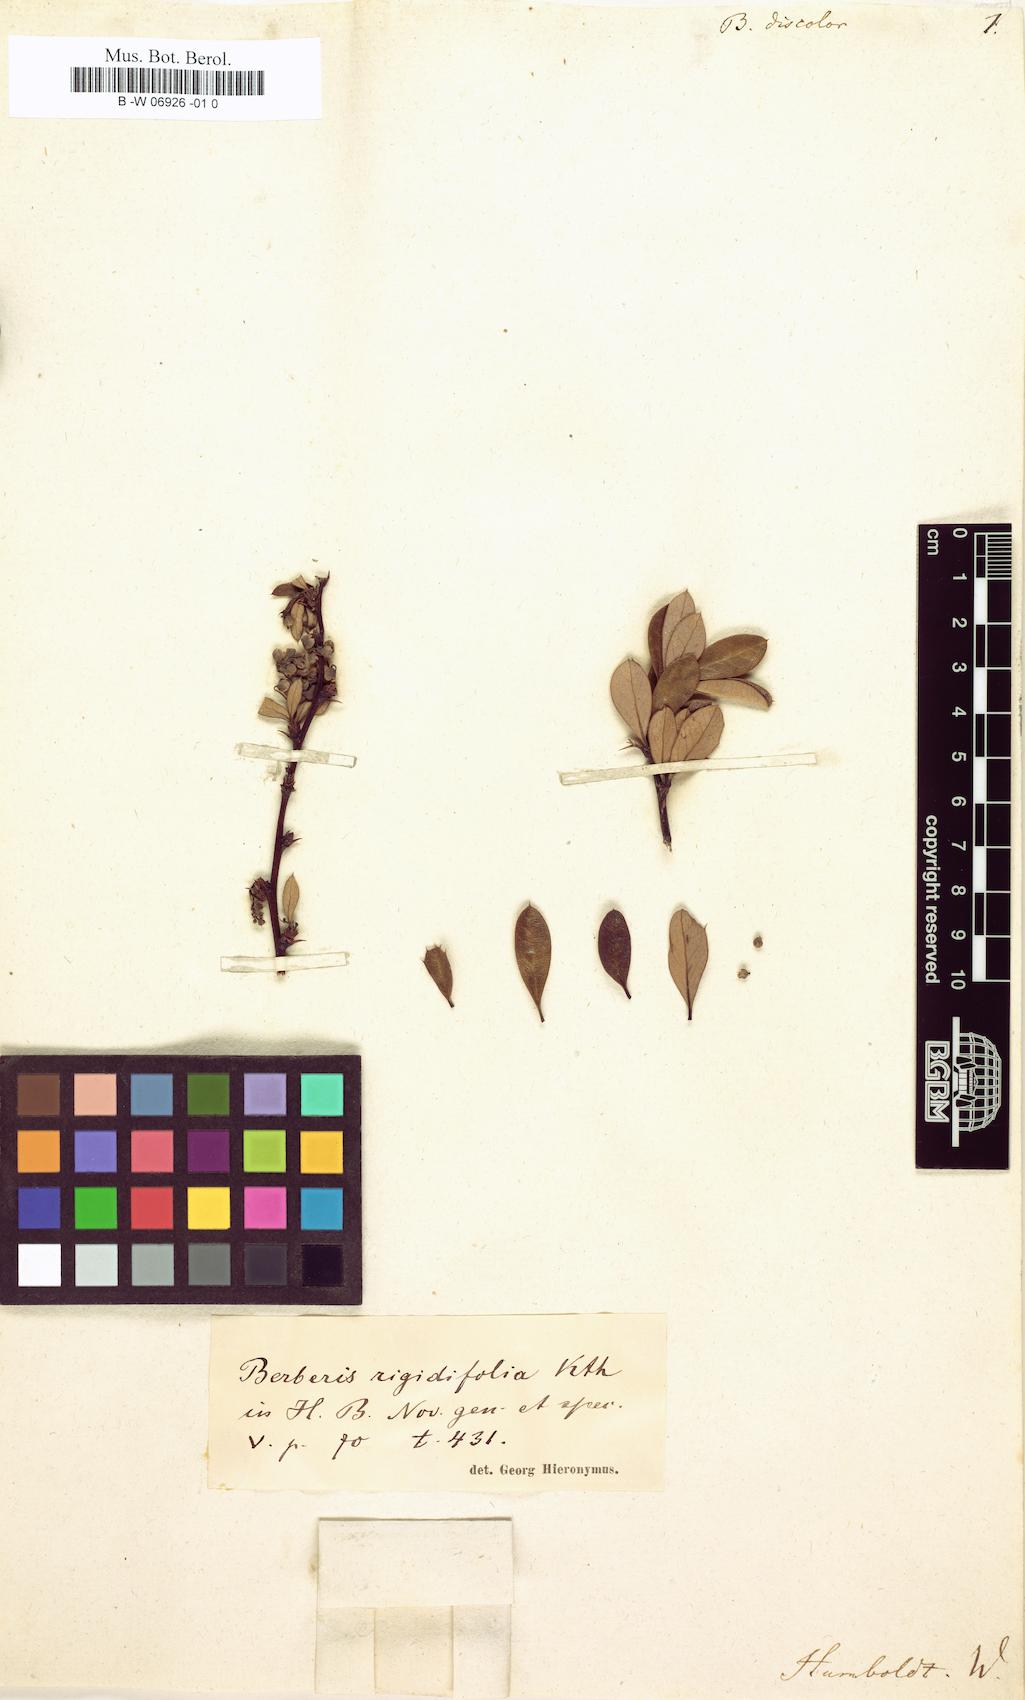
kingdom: Plantae
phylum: Tracheophyta
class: Magnoliopsida
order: Ranunculales
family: Berberidaceae
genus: Berberis
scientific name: Berberis rigidifolia
